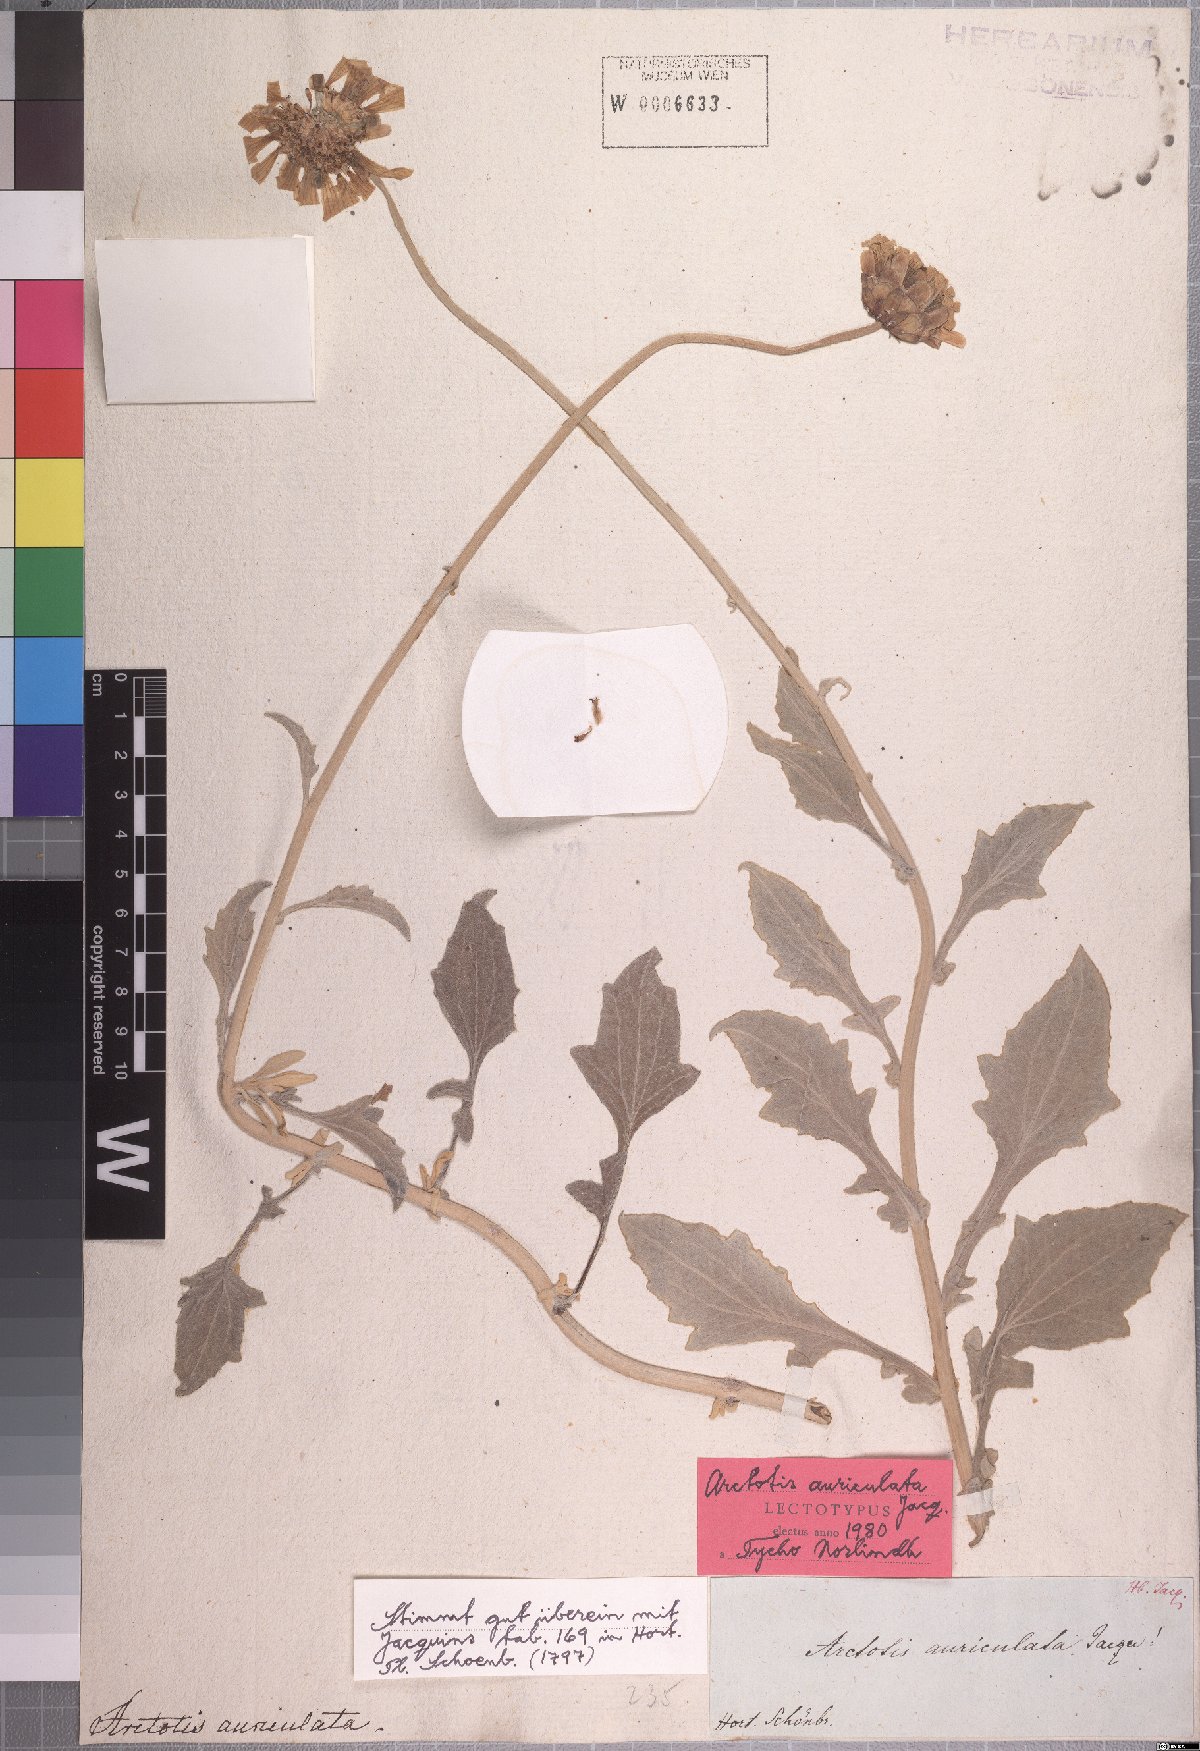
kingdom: Plantae
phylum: Tracheophyta
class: Magnoliopsida
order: Asterales
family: Asteraceae
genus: Arctotis
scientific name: Arctotis auriculata
